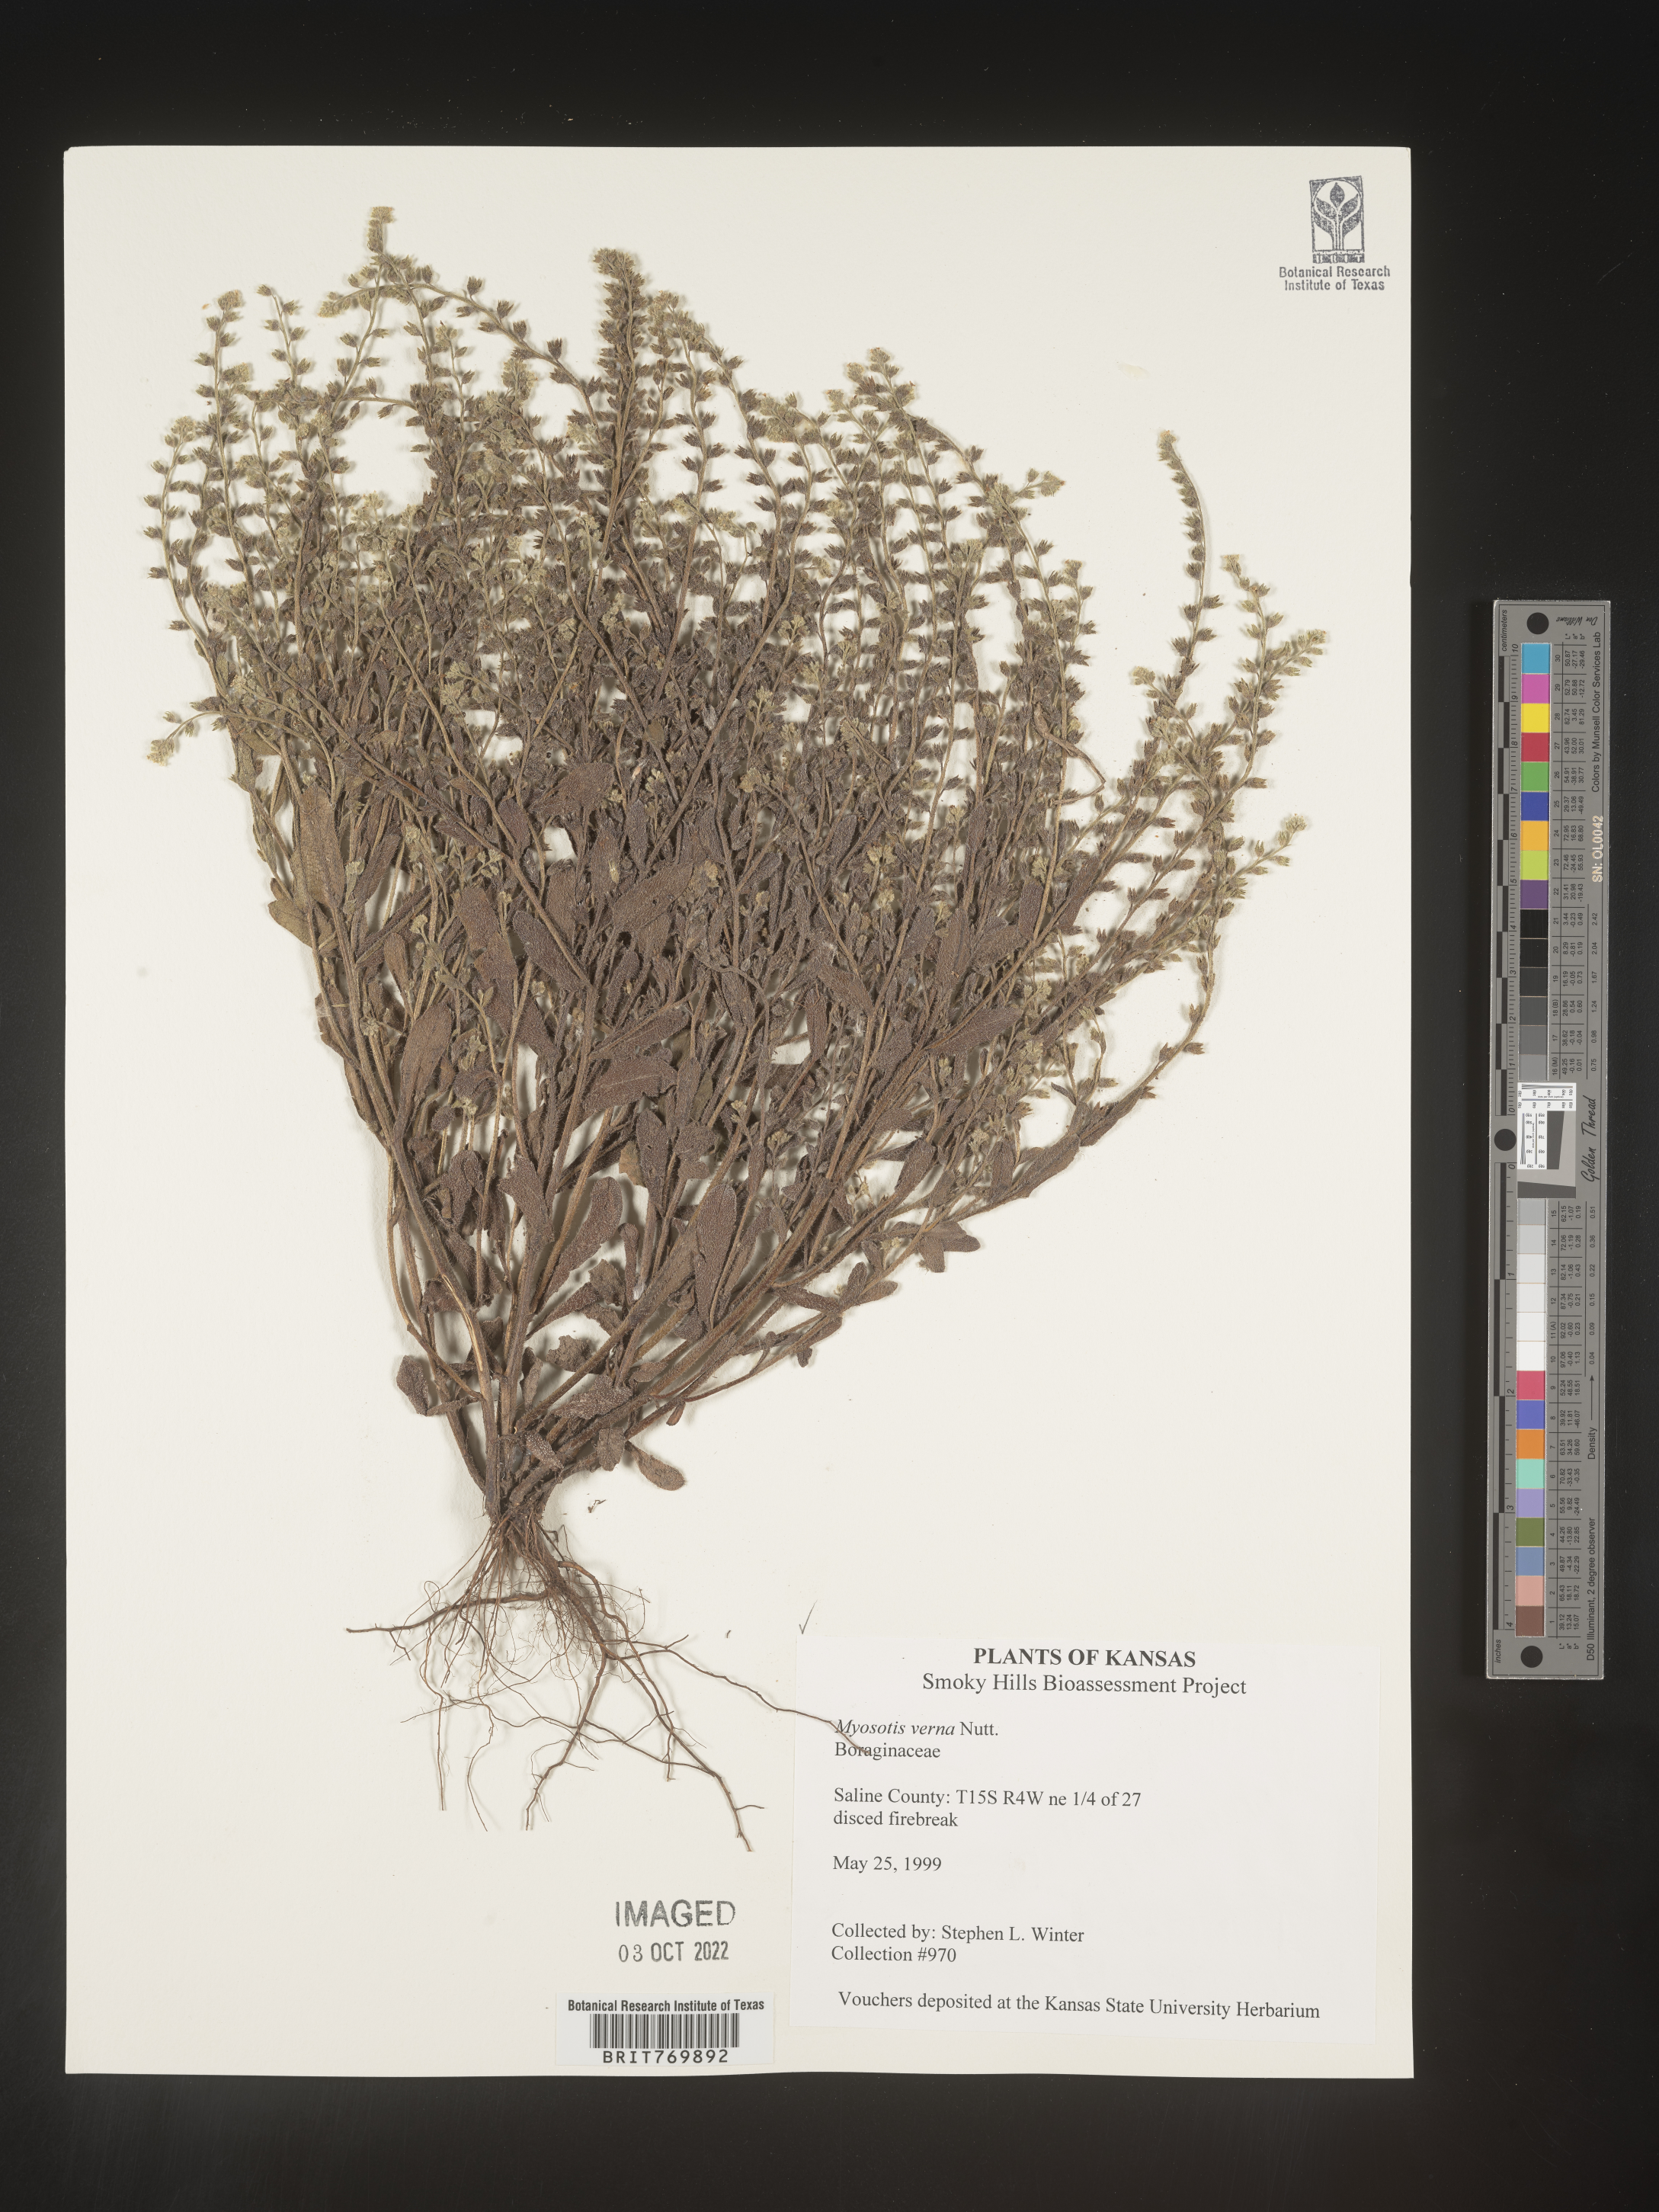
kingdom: Plantae
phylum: Tracheophyta
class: Magnoliopsida
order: Boraginales
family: Boraginaceae
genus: Myosotis
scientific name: Myosotis verna
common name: Early forget-me-not
